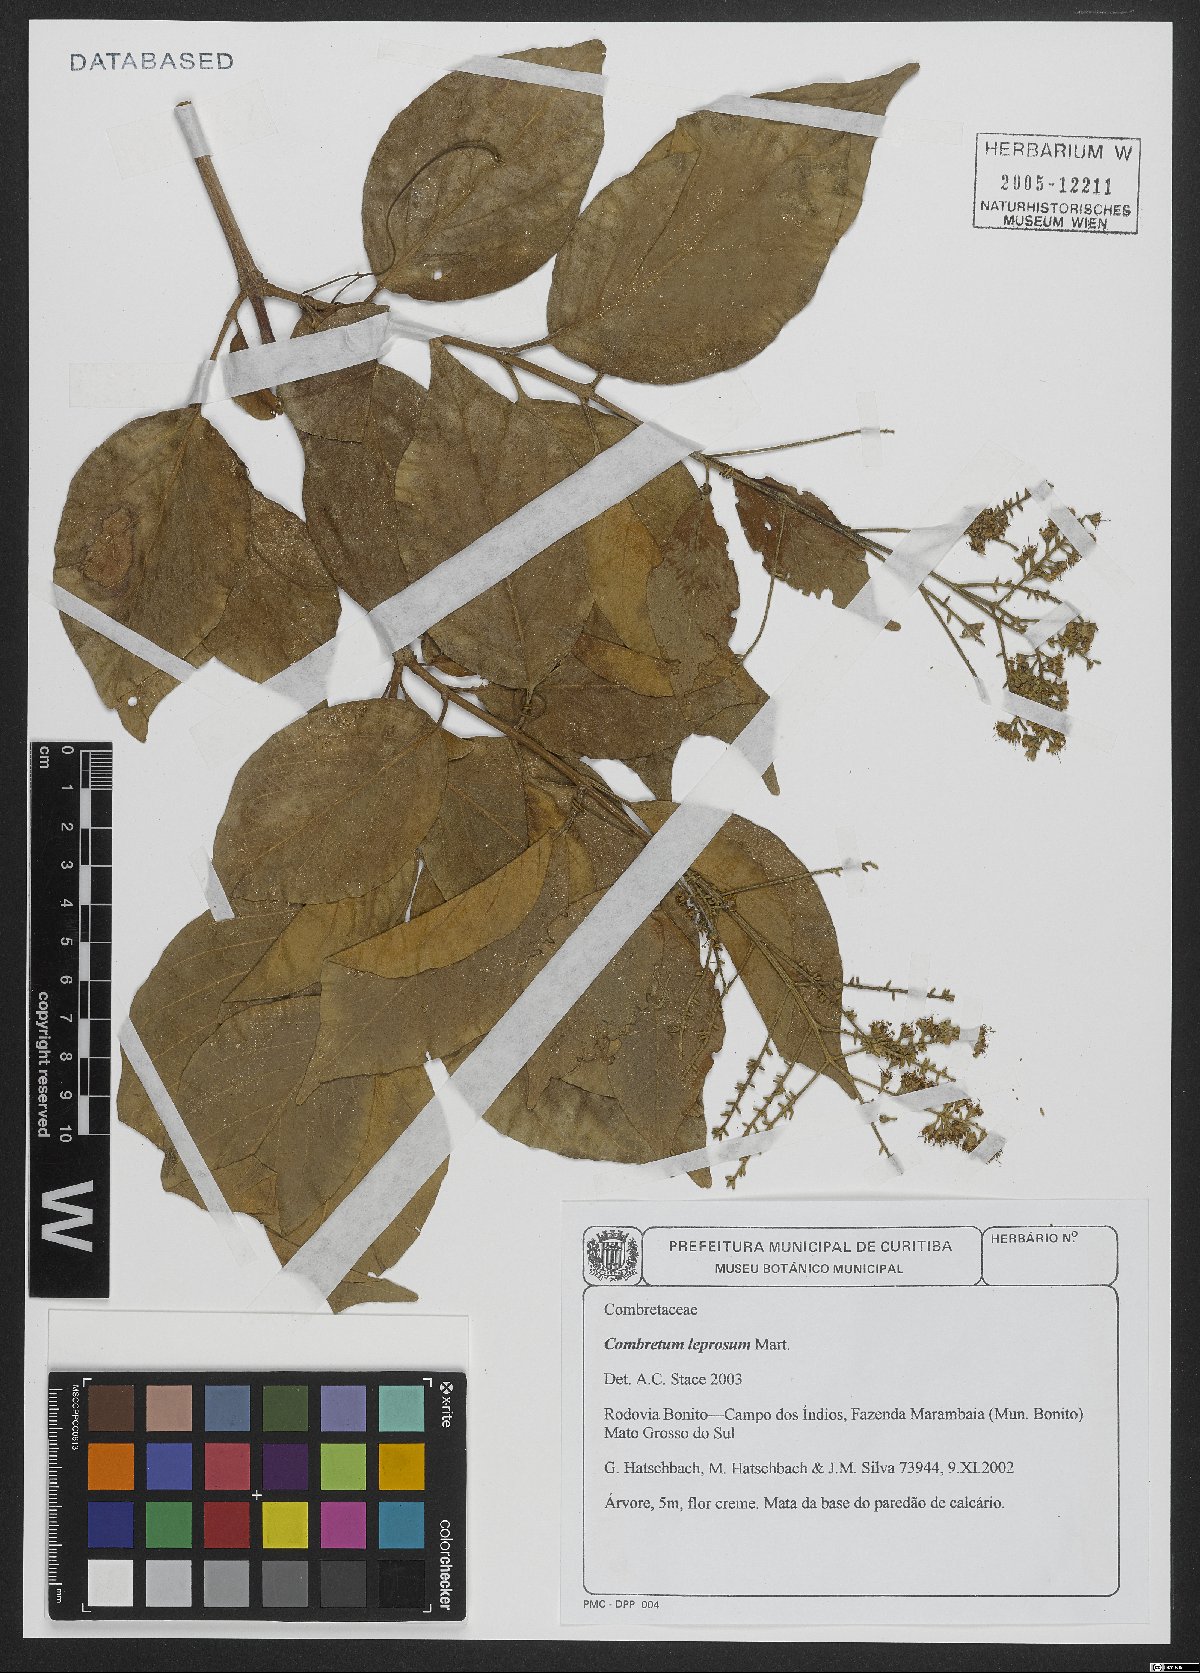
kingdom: Plantae
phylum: Tracheophyta
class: Magnoliopsida
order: Myrtales
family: Combretaceae
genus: Combretum
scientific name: Combretum leprosum
